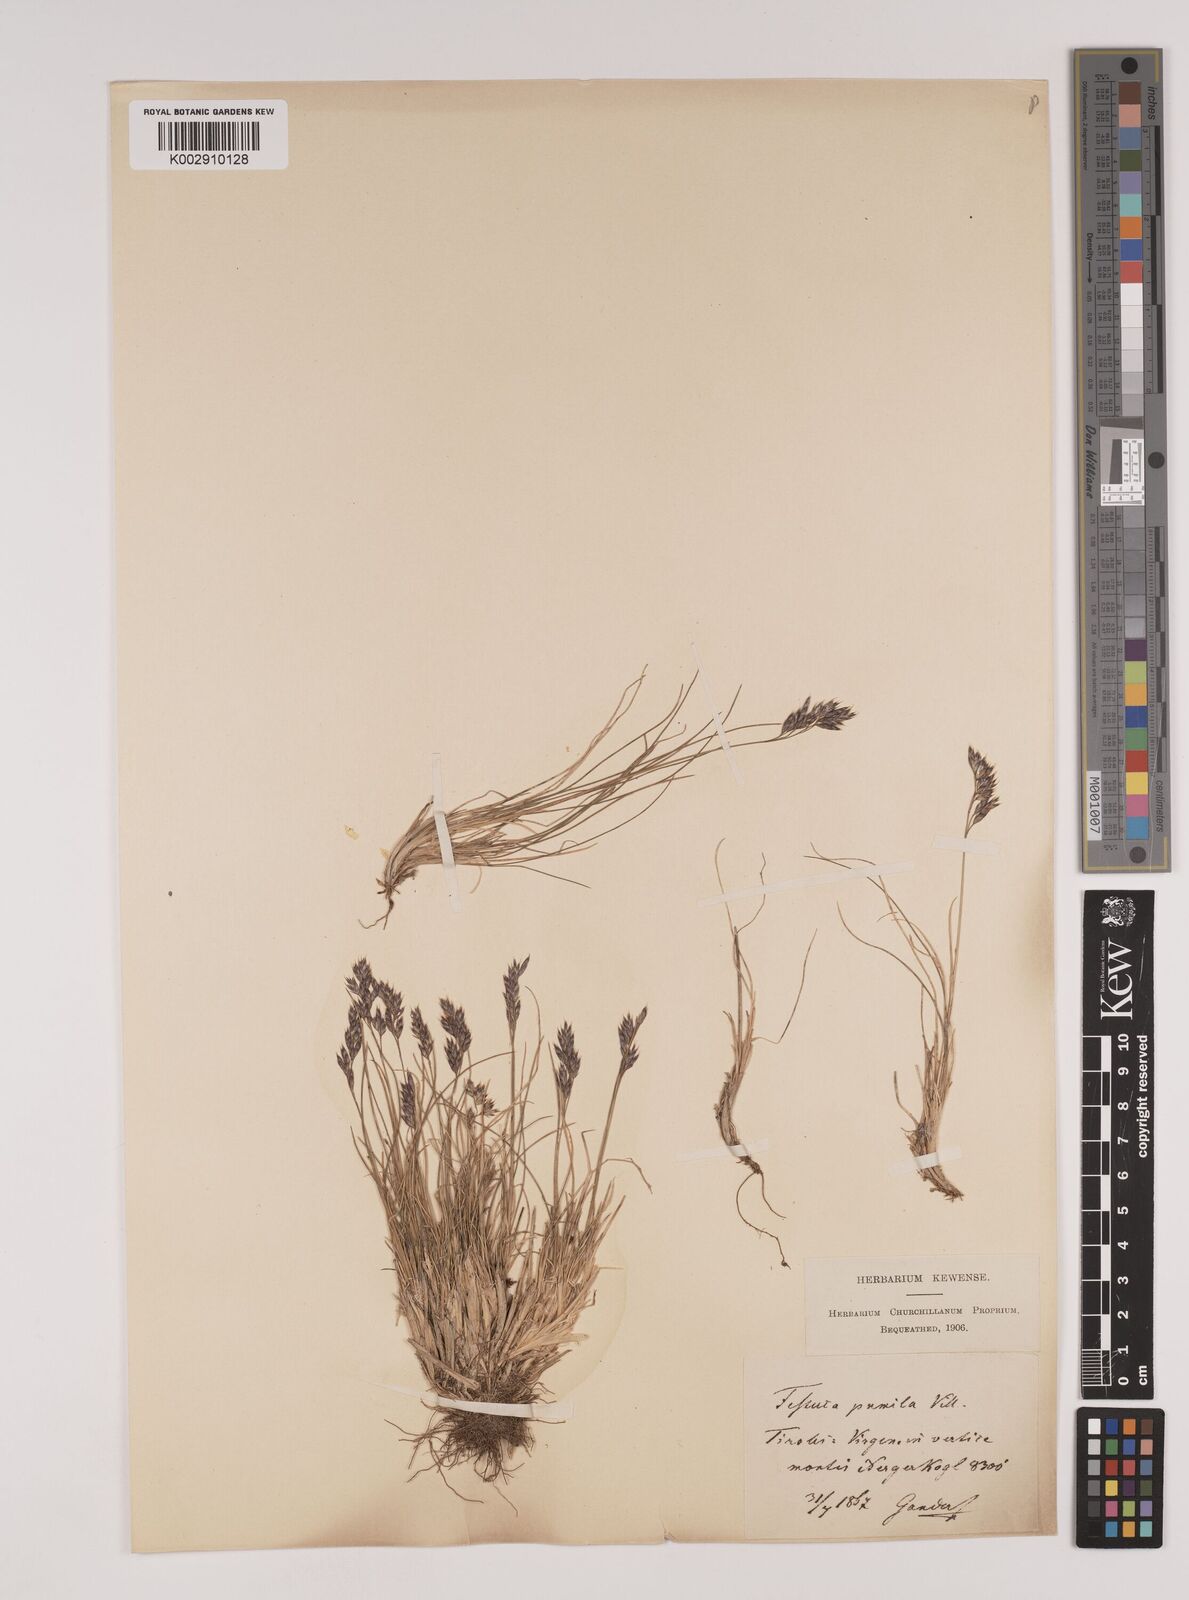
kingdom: Plantae
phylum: Tracheophyta
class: Liliopsida
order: Poales
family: Poaceae
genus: Festuca
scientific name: Festuca
